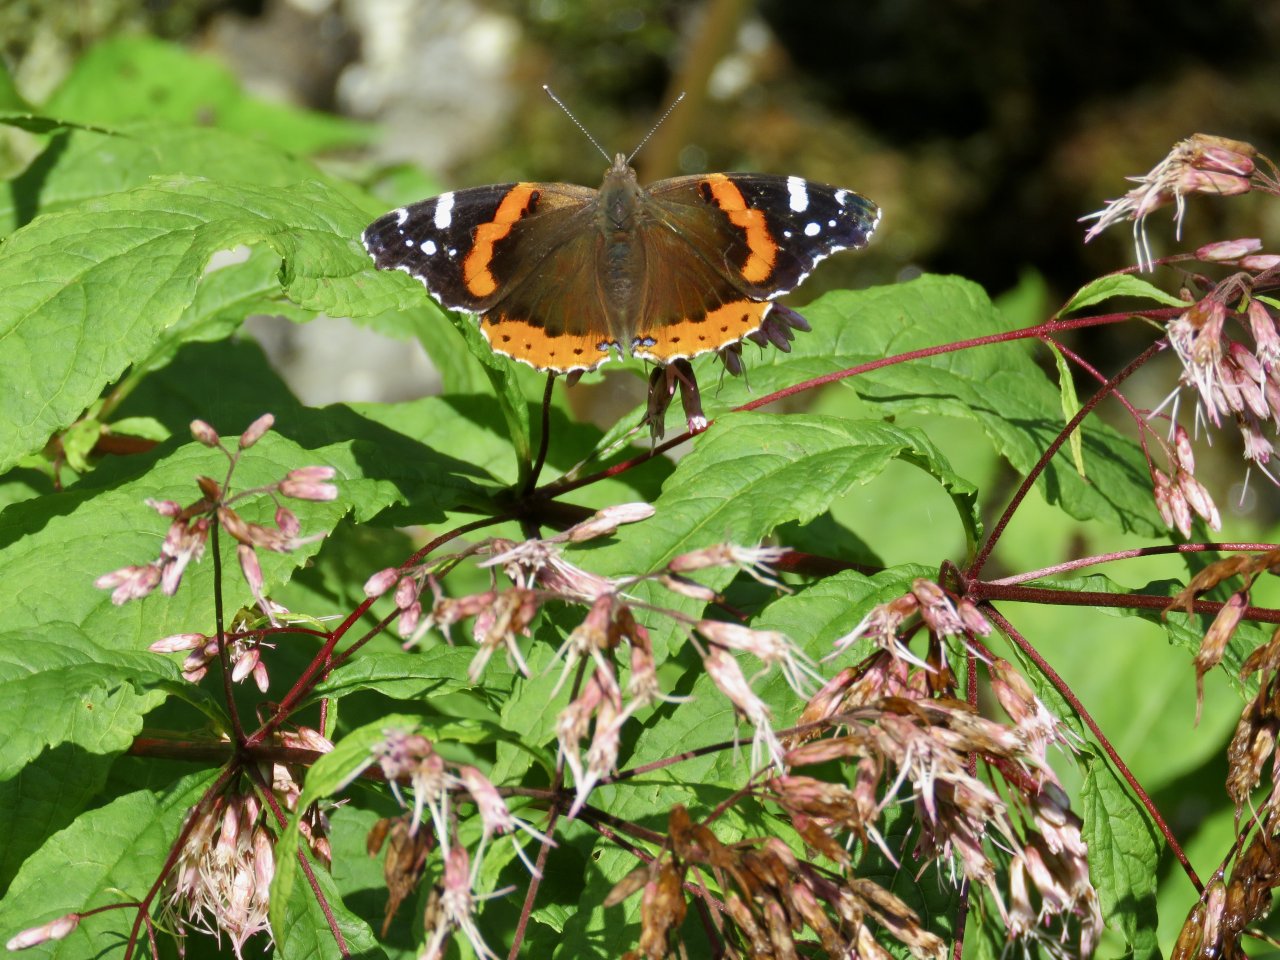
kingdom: Animalia
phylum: Arthropoda
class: Insecta
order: Lepidoptera
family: Nymphalidae
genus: Vanessa
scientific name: Vanessa atalanta
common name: Red Admiral
